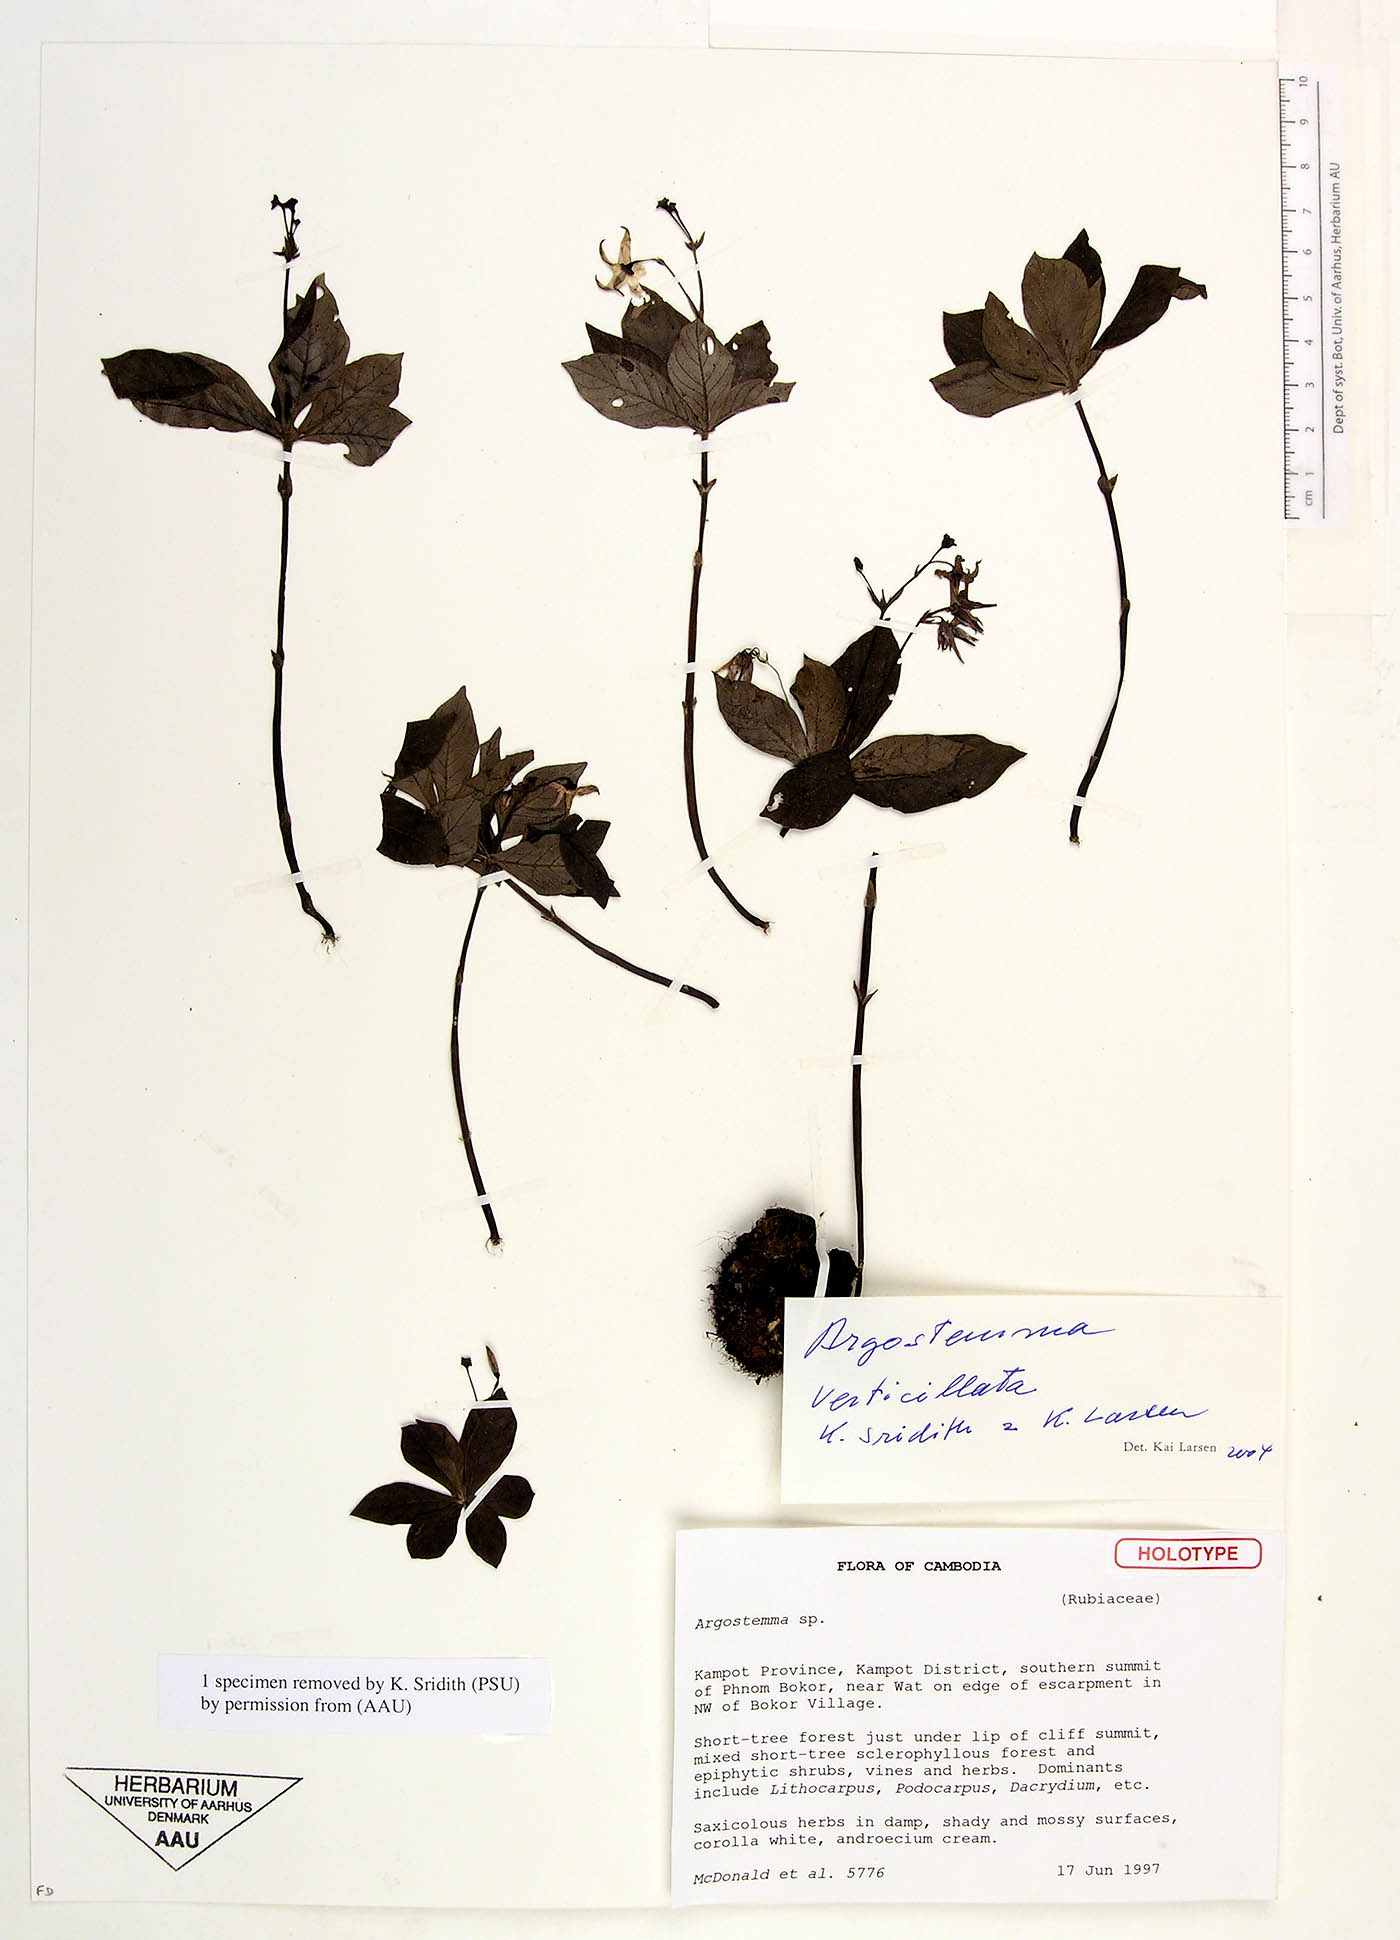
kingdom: Plantae
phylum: Tracheophyta
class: Magnoliopsida
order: Gentianales
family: Rubiaceae
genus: Argostemma
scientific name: Argostemma verticillatum
